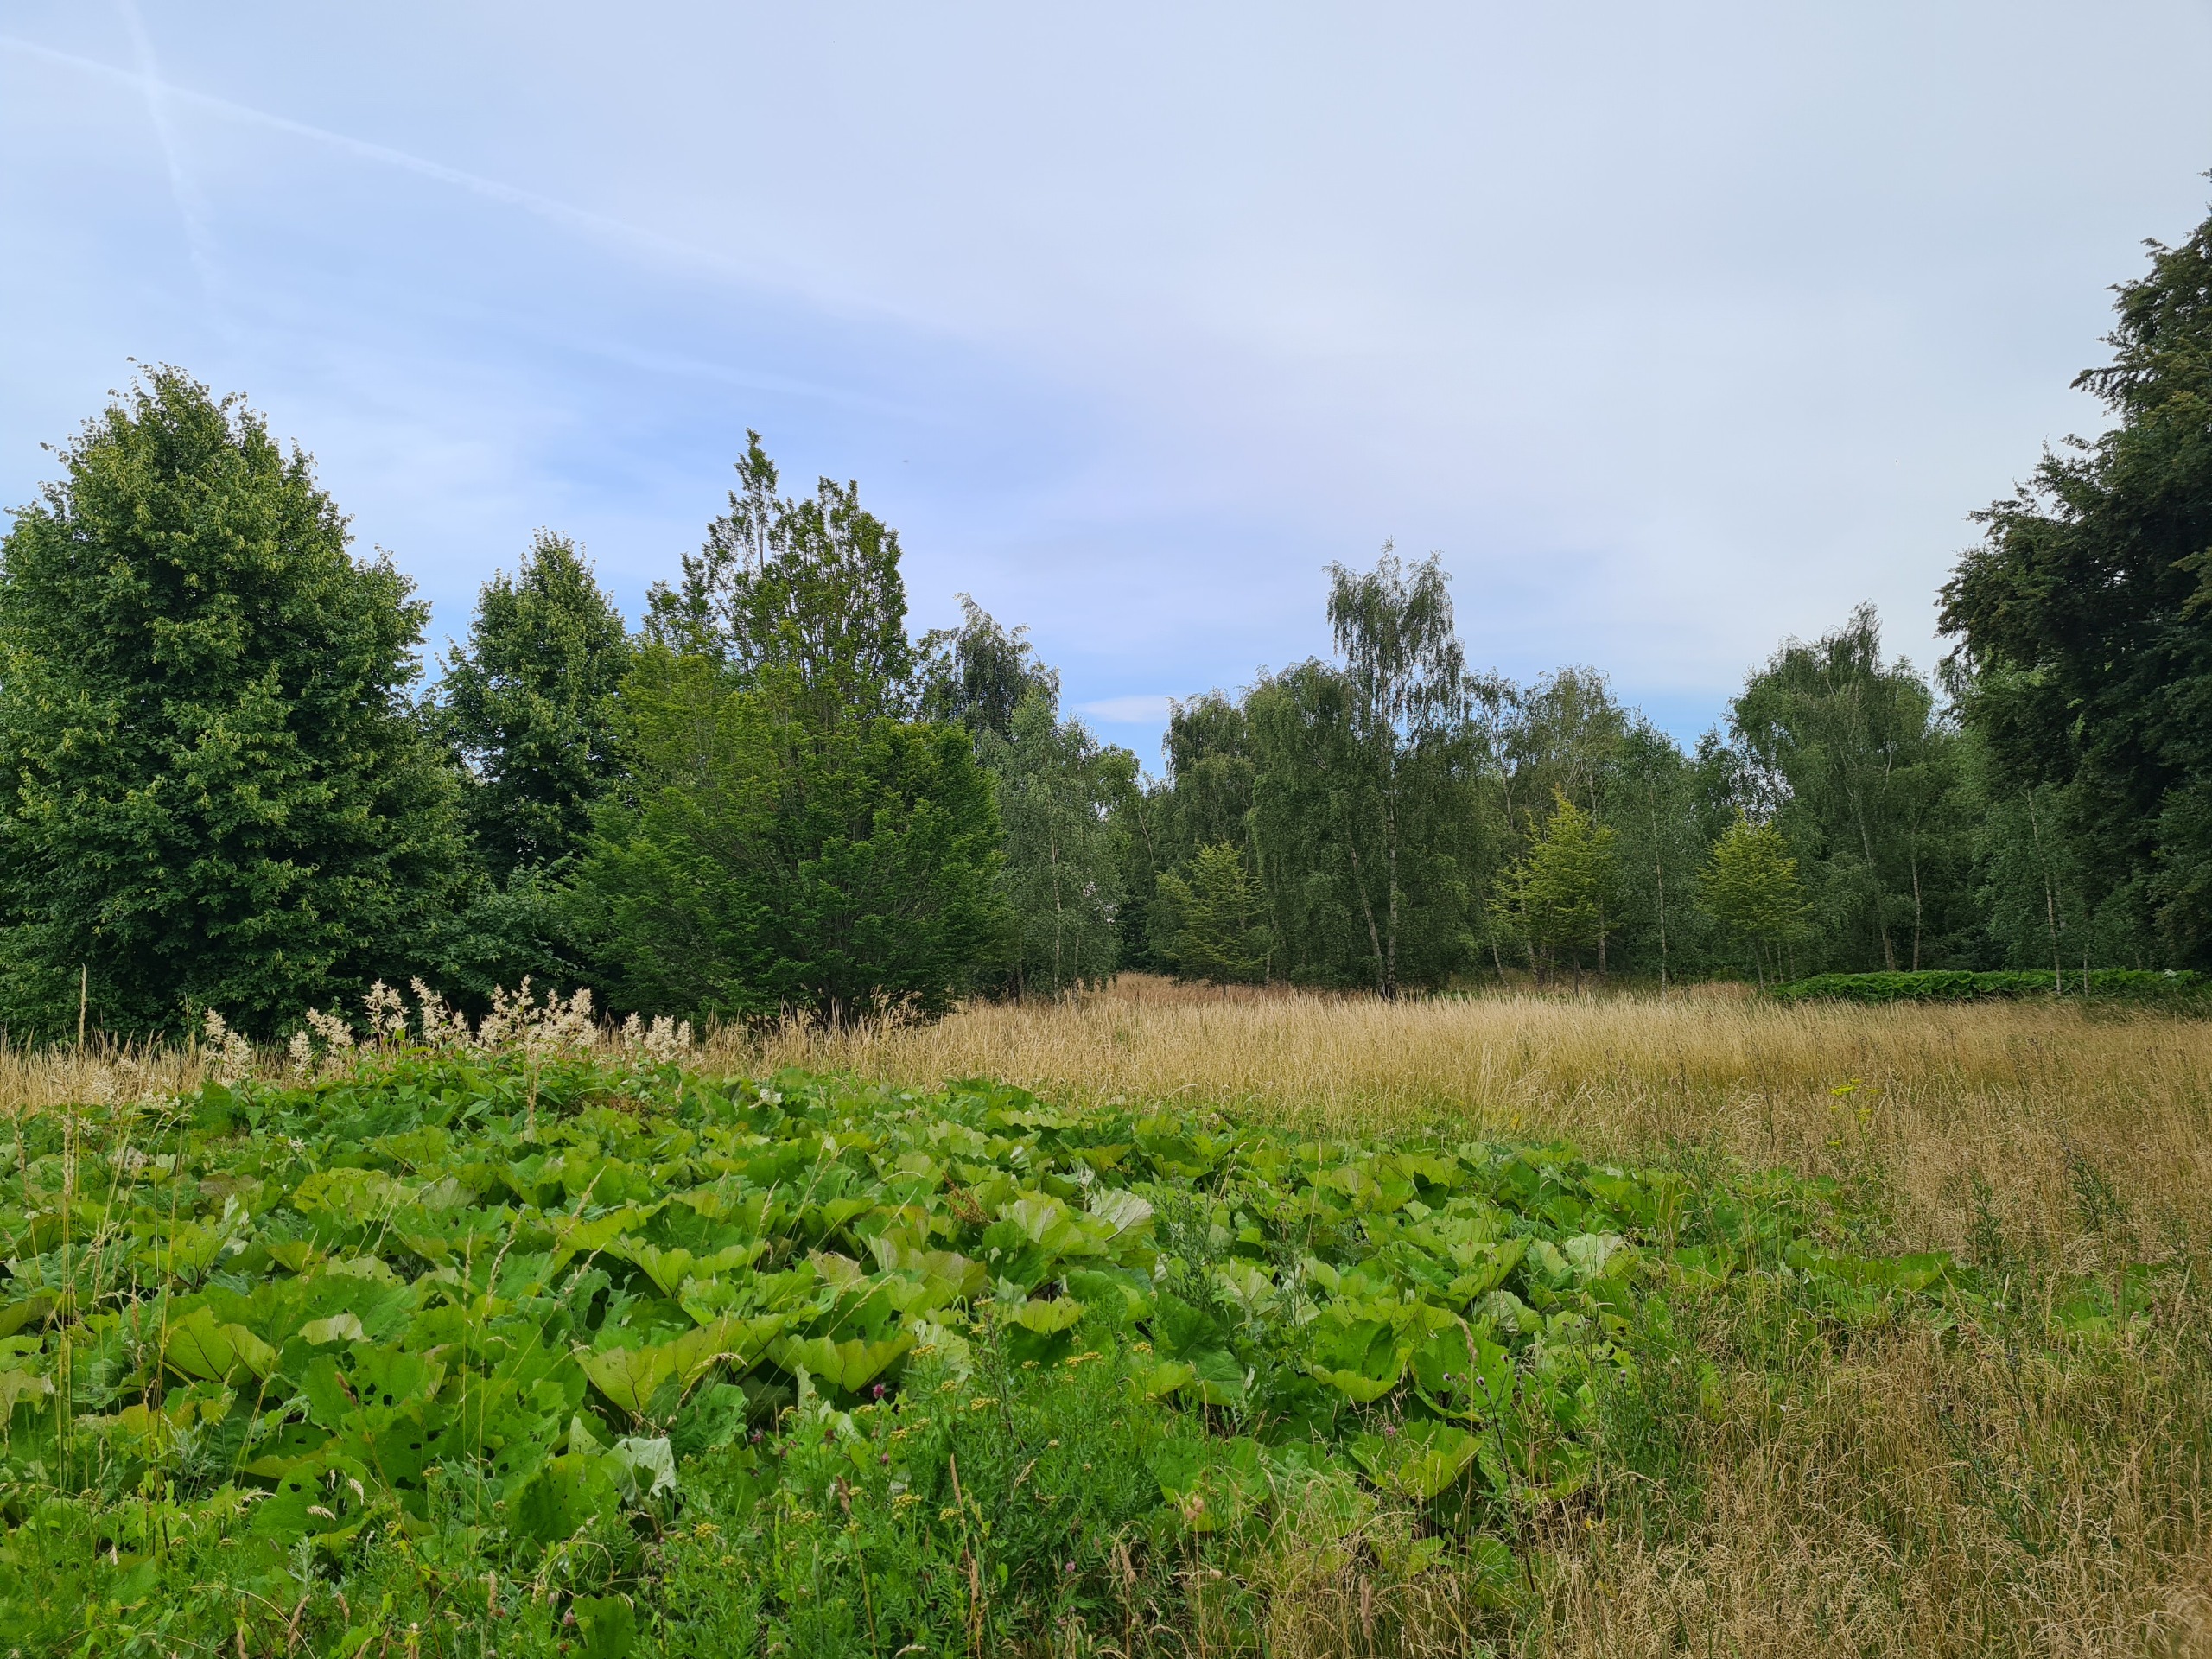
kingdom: Plantae
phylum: Tracheophyta
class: Magnoliopsida
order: Asterales
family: Asteraceae
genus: Petasites
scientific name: Petasites hybridus
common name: Rød hestehov
